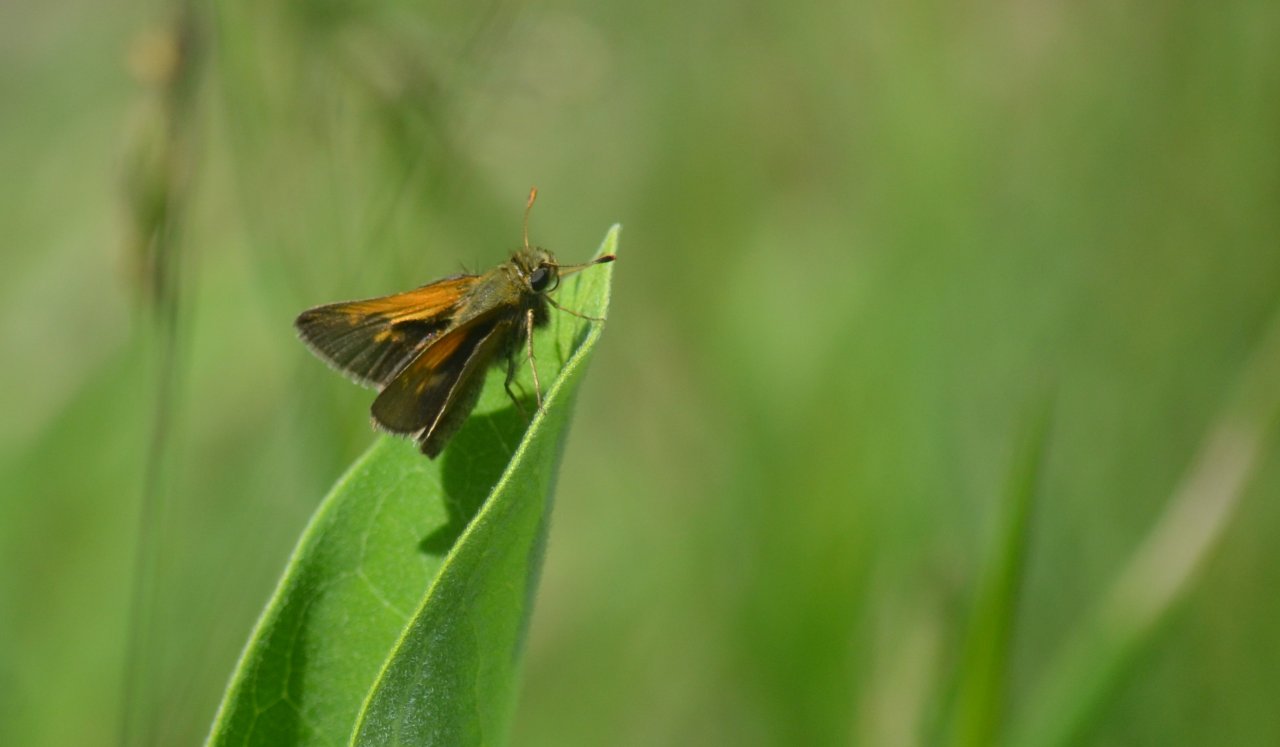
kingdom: Animalia
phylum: Arthropoda
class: Insecta
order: Lepidoptera
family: Hesperiidae
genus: Polites
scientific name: Polites themistocles
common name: Tawny-edged Skipper
